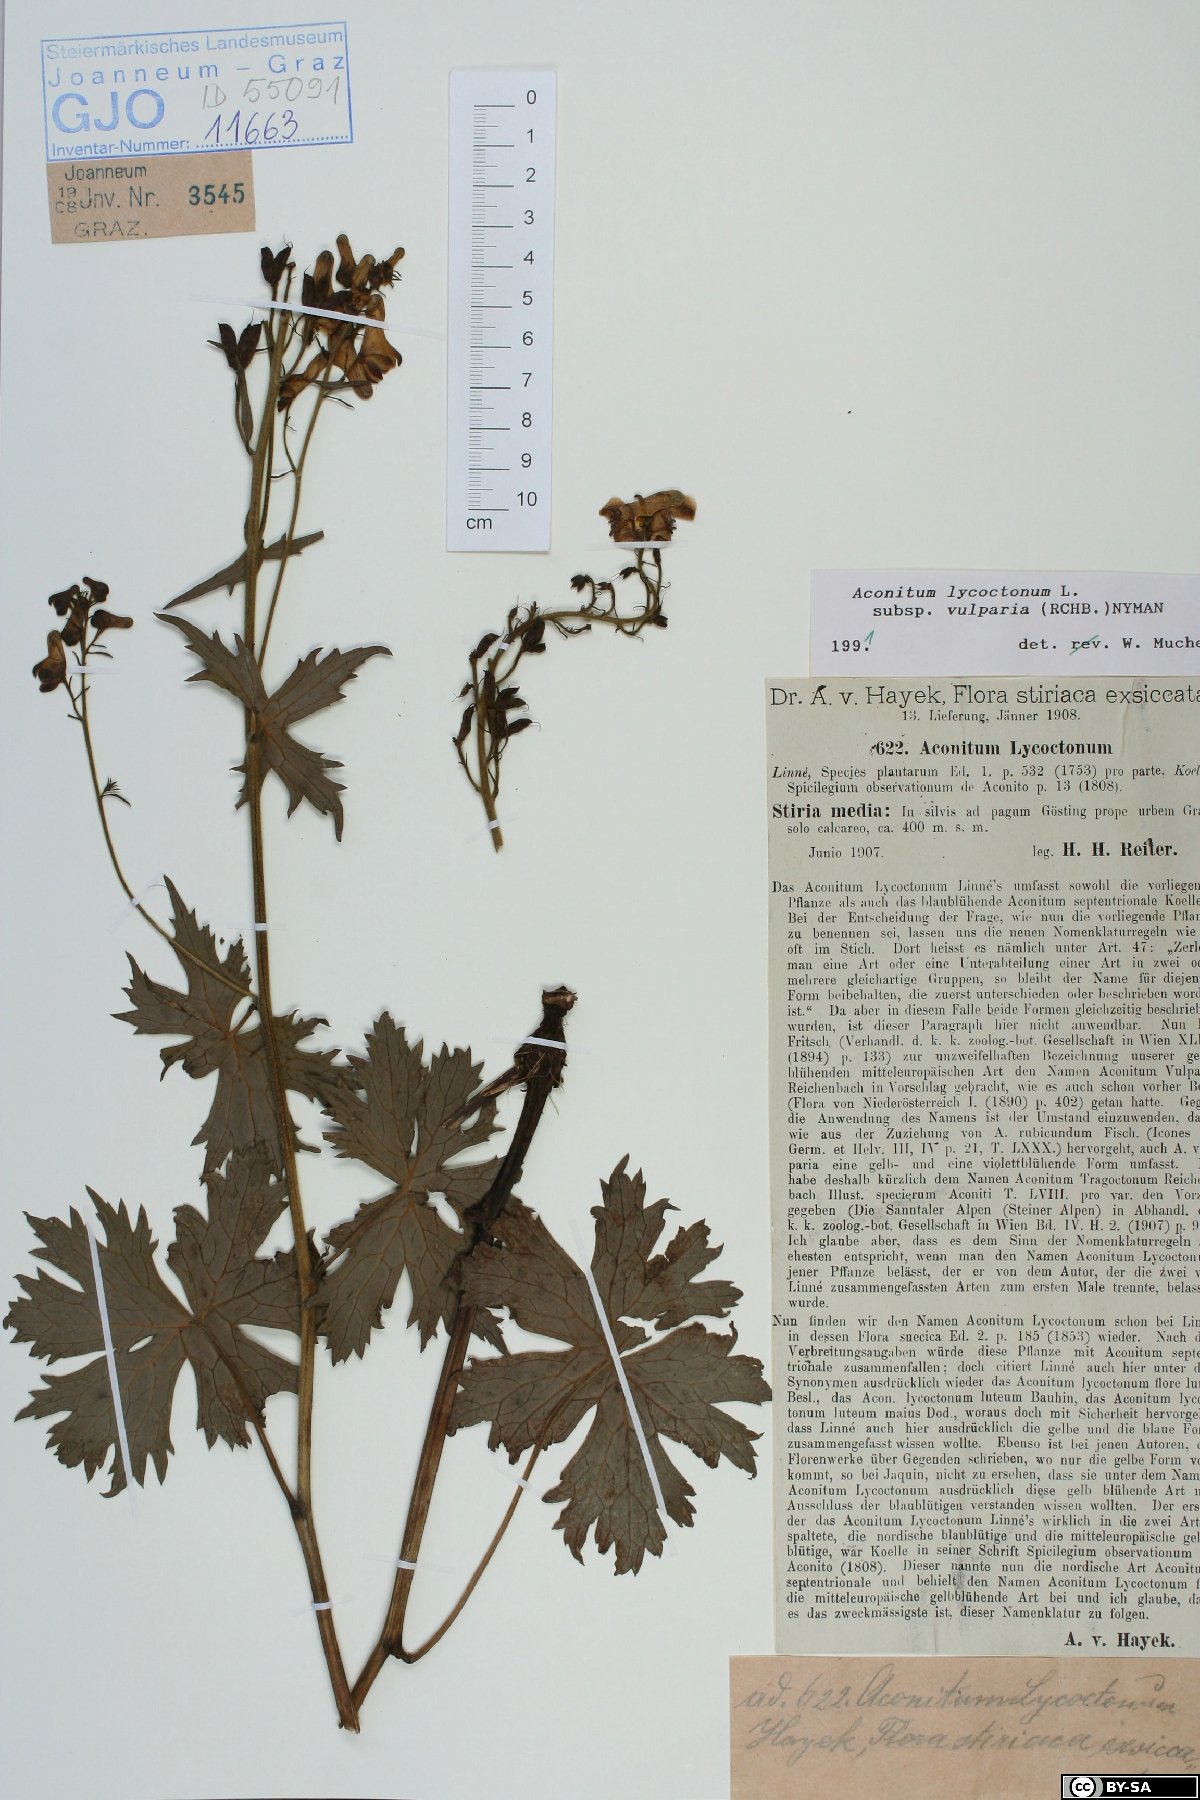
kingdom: Plantae
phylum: Tracheophyta
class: Magnoliopsida
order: Ranunculales
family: Ranunculaceae
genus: Aconitum
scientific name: Aconitum lycoctonum
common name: Wolf's-bane
